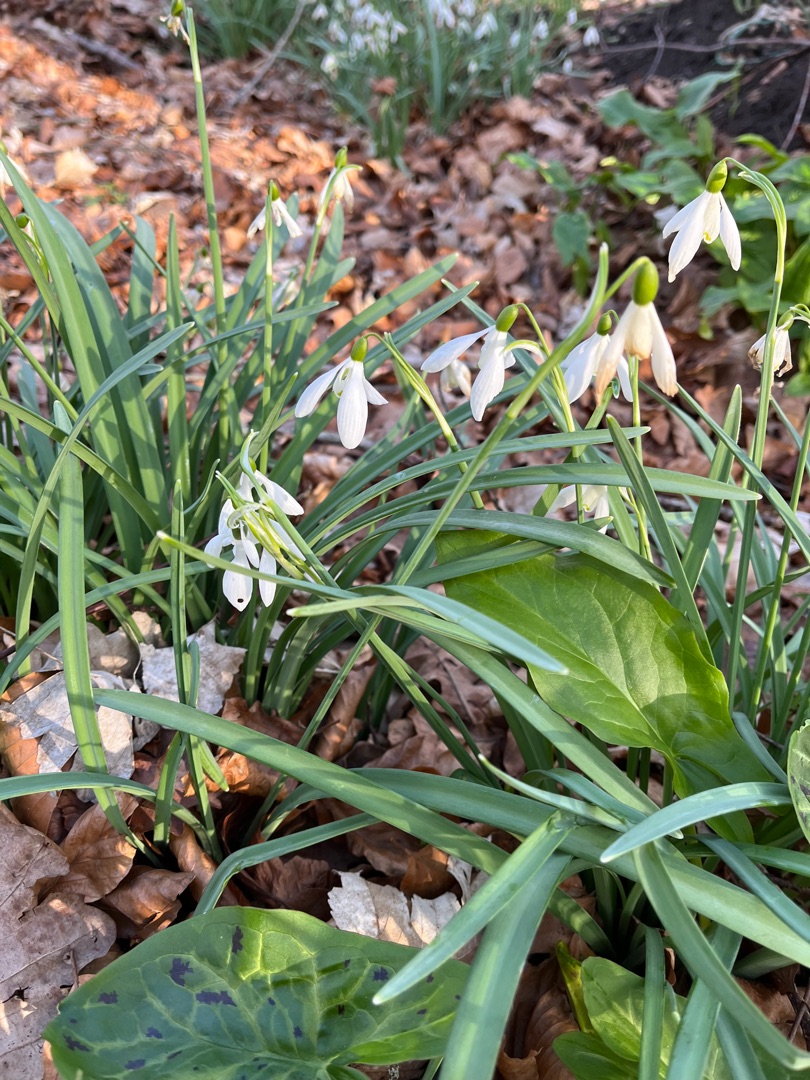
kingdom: Plantae
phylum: Tracheophyta
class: Liliopsida
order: Asparagales
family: Amaryllidaceae
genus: Galanthus
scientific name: Galanthus nivalis
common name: Vintergæk
